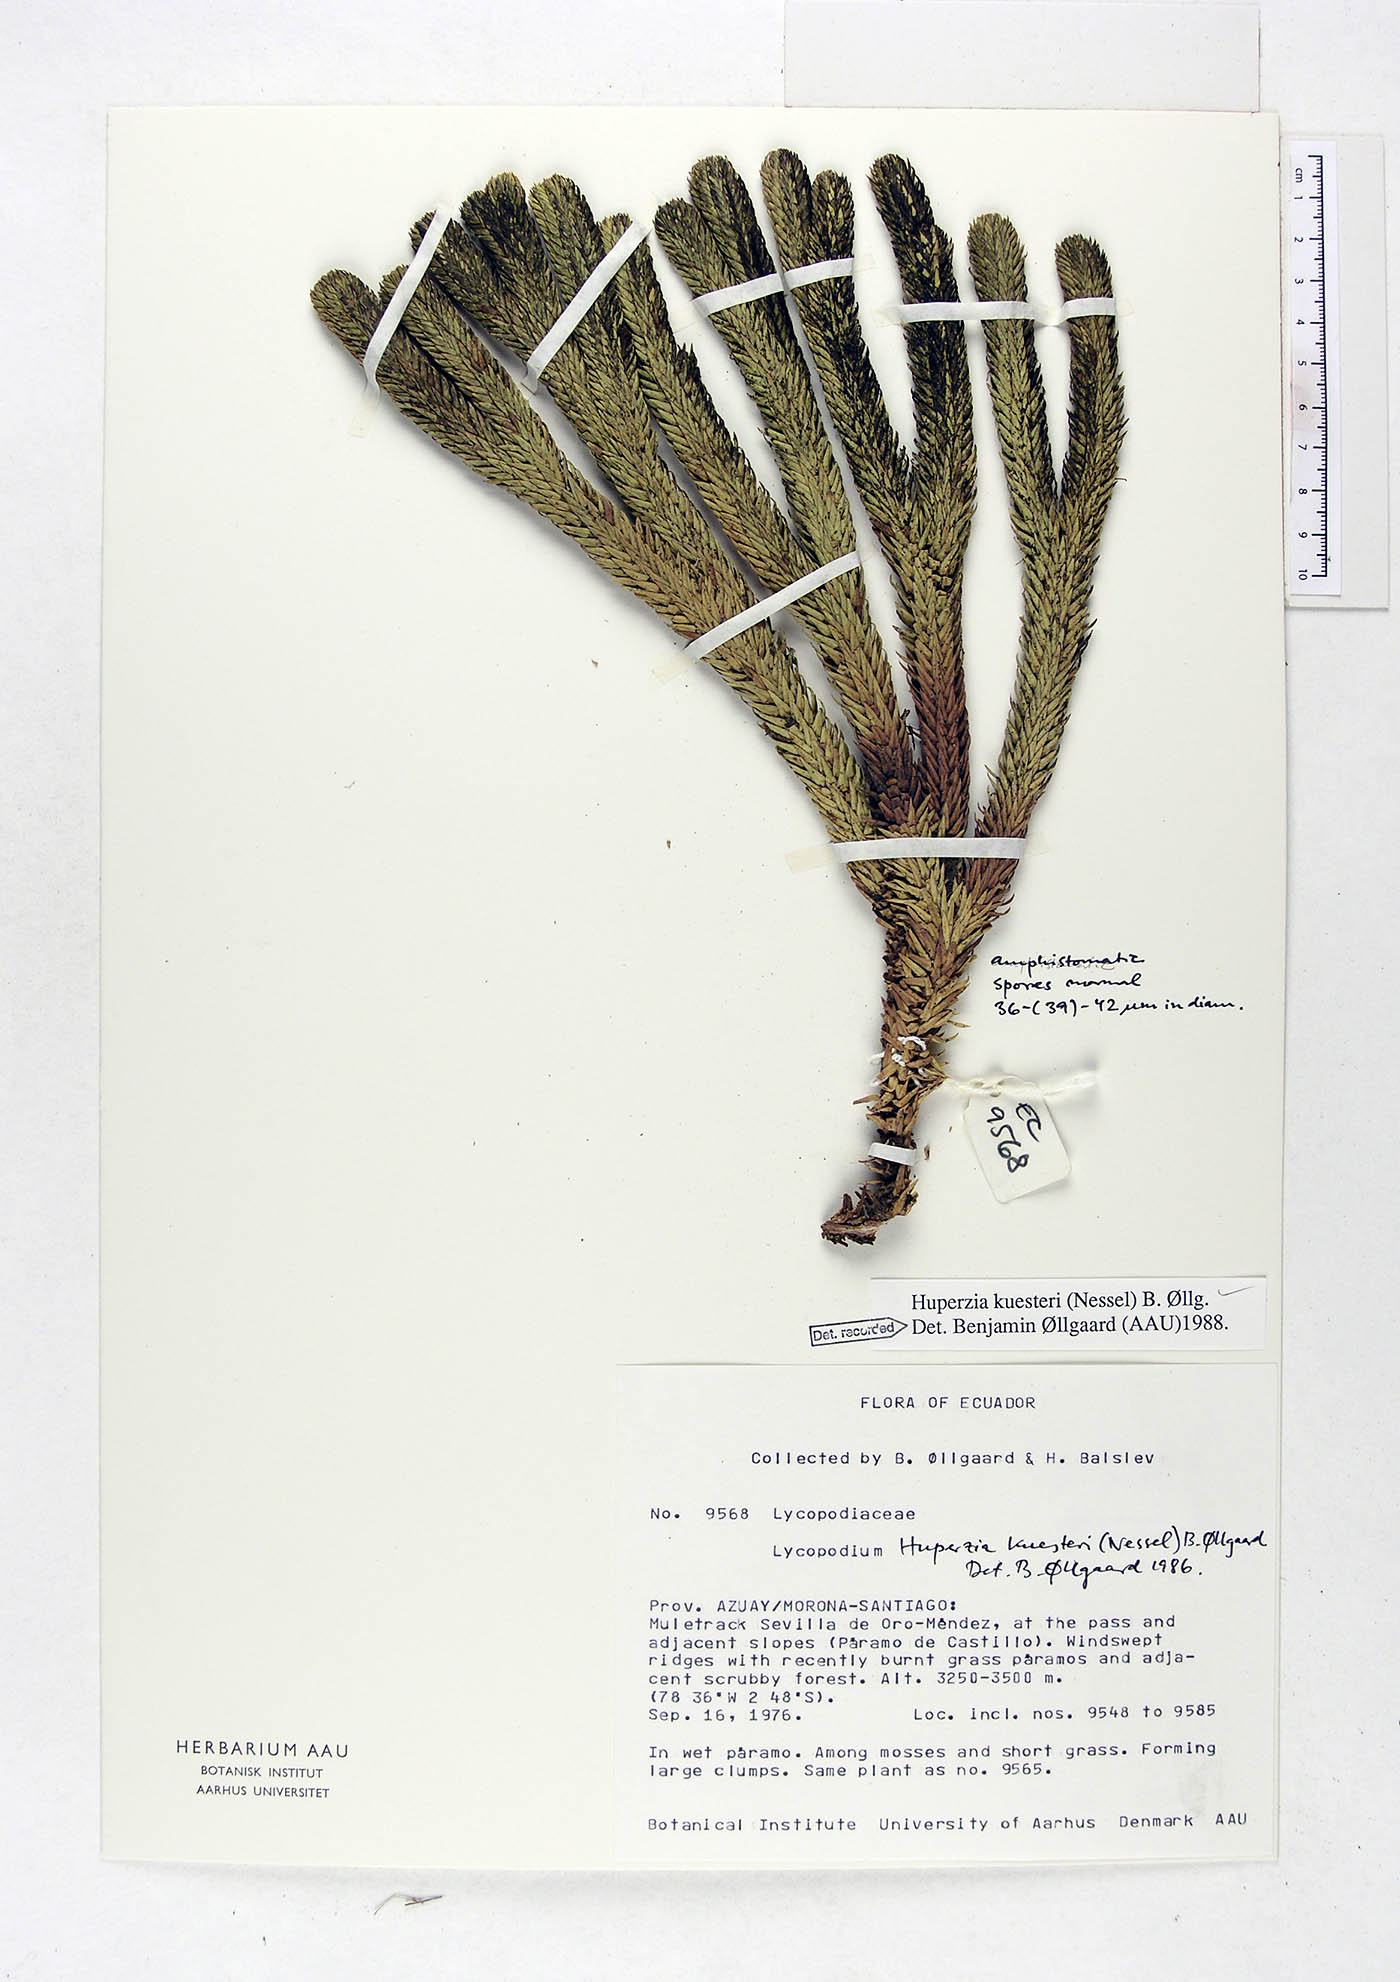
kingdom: Plantae
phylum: Tracheophyta
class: Lycopodiopsida
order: Lycopodiales
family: Lycopodiaceae
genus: Phlegmariurus
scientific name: Phlegmariurus kuesteri
